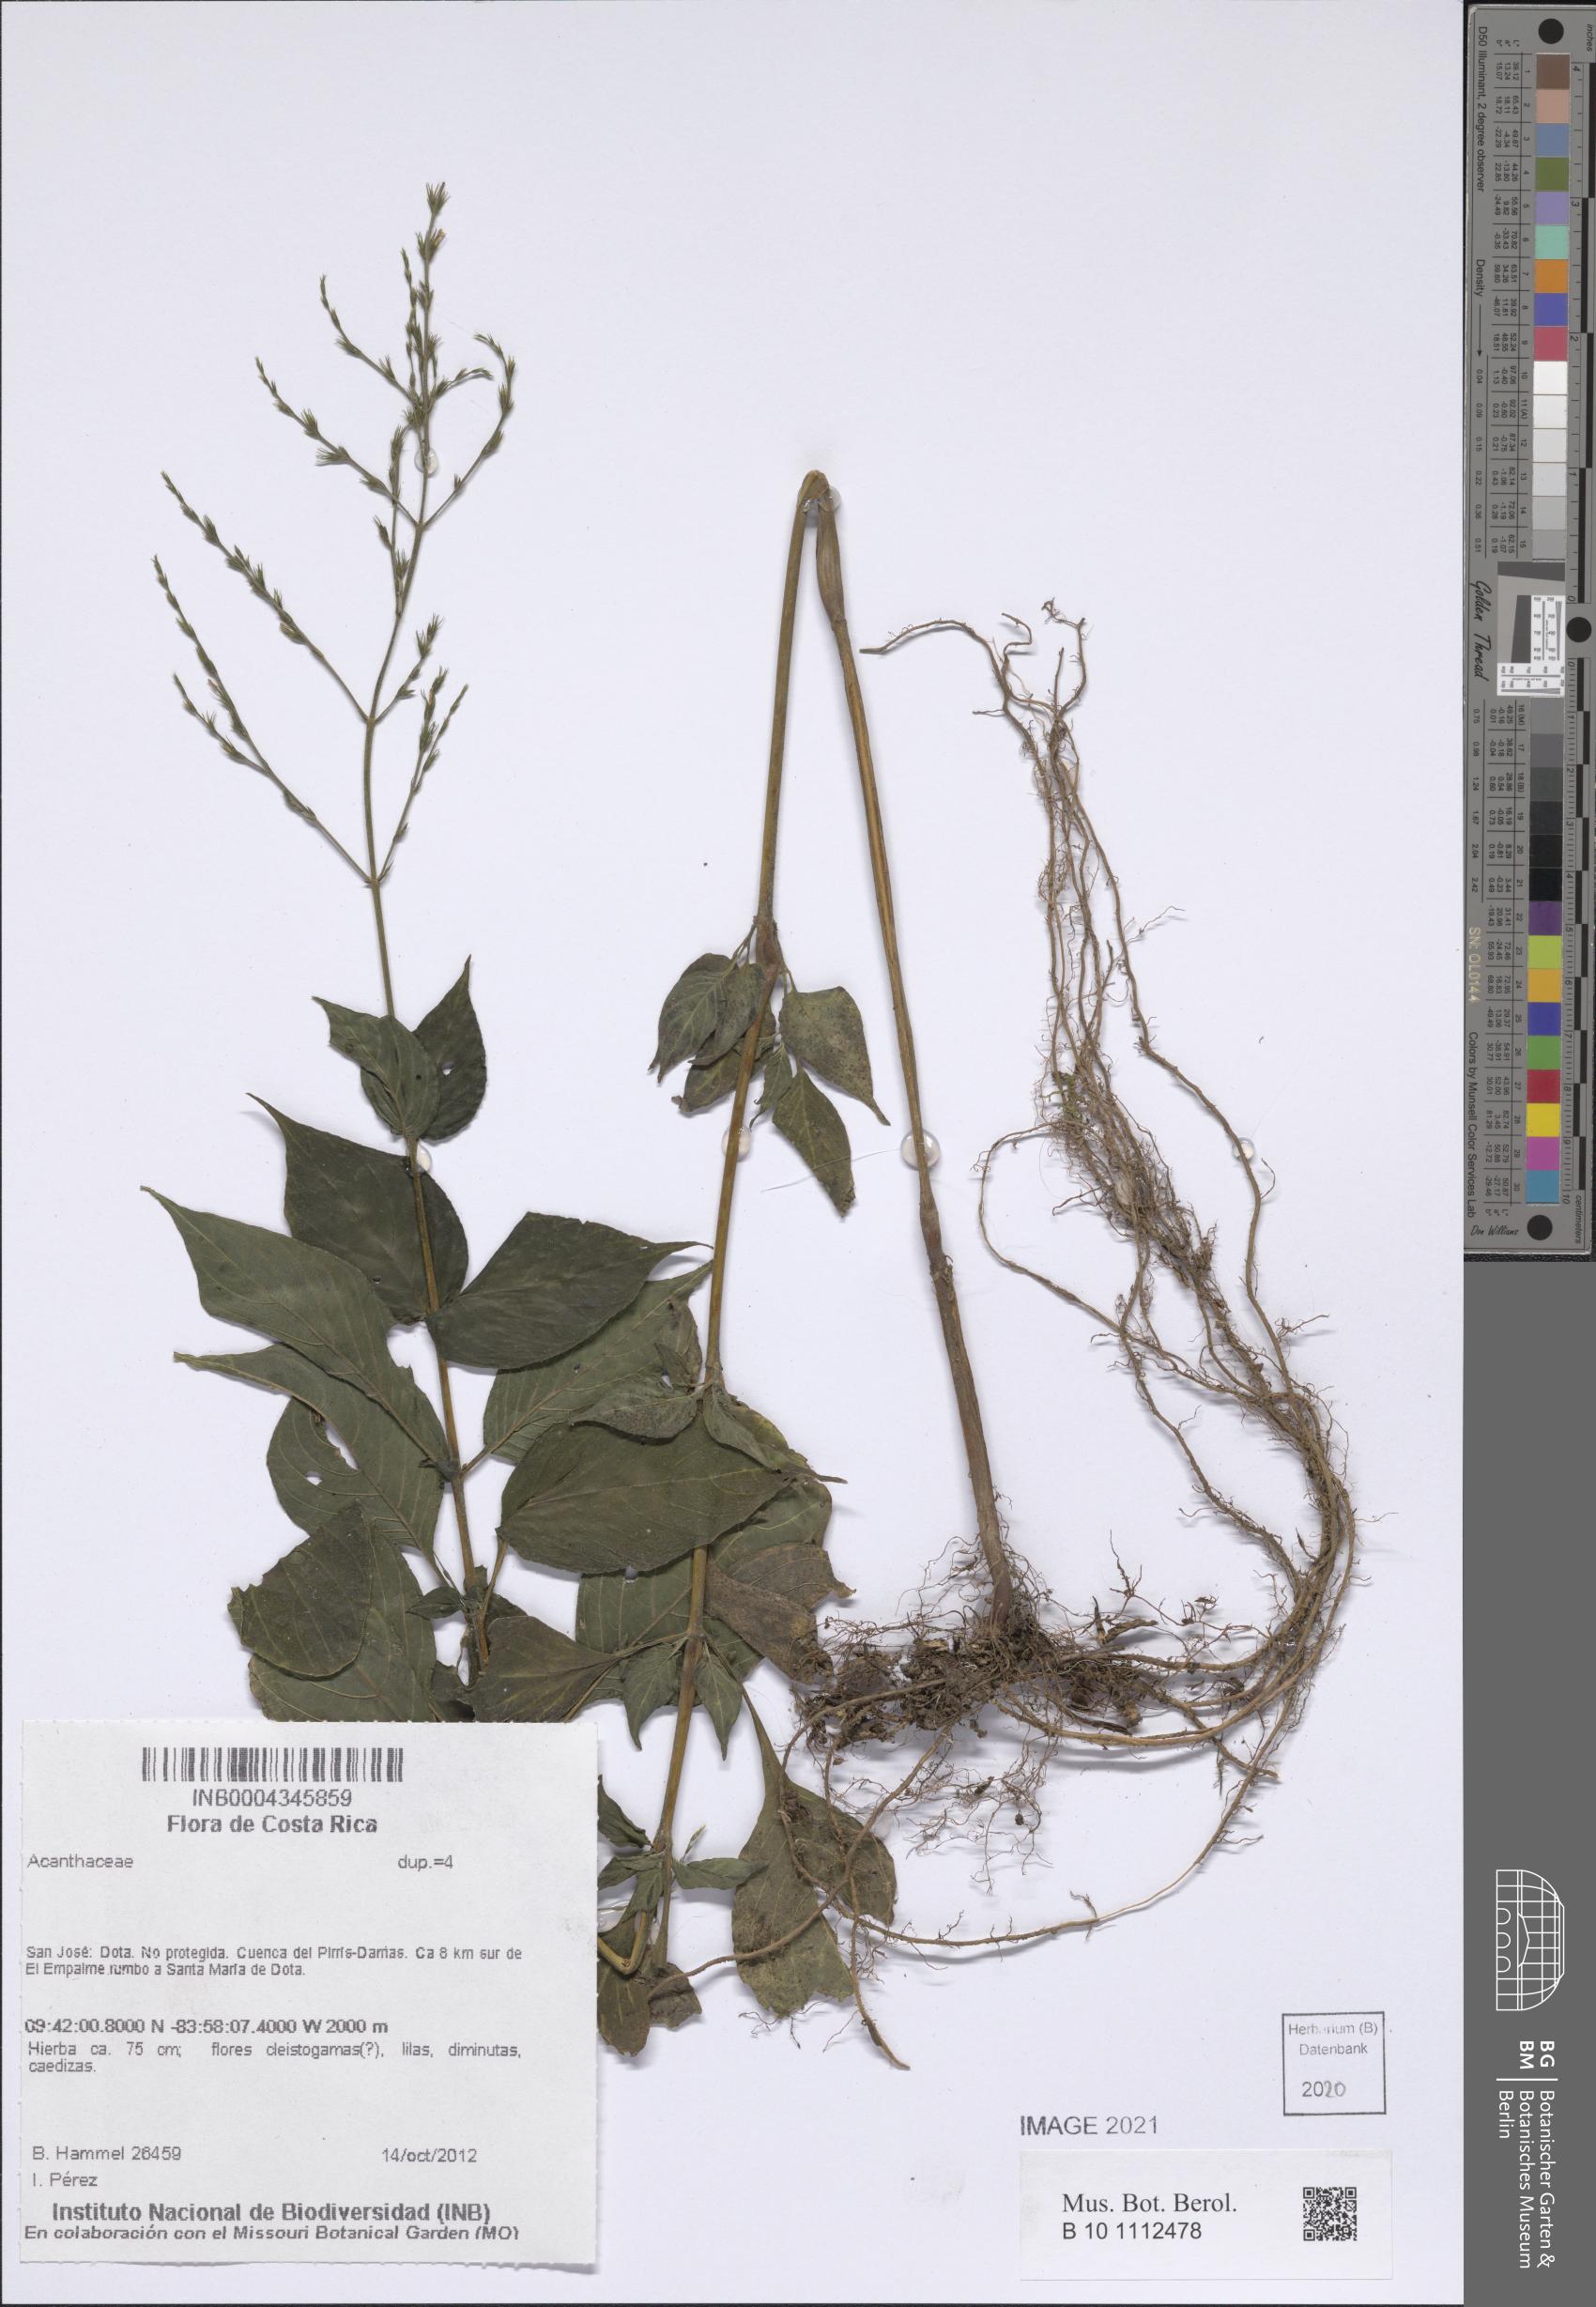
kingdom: Plantae
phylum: Tracheophyta
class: Magnoliopsida
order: Lamiales
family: Acanthaceae
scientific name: Acanthaceae
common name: Acanthaceae
